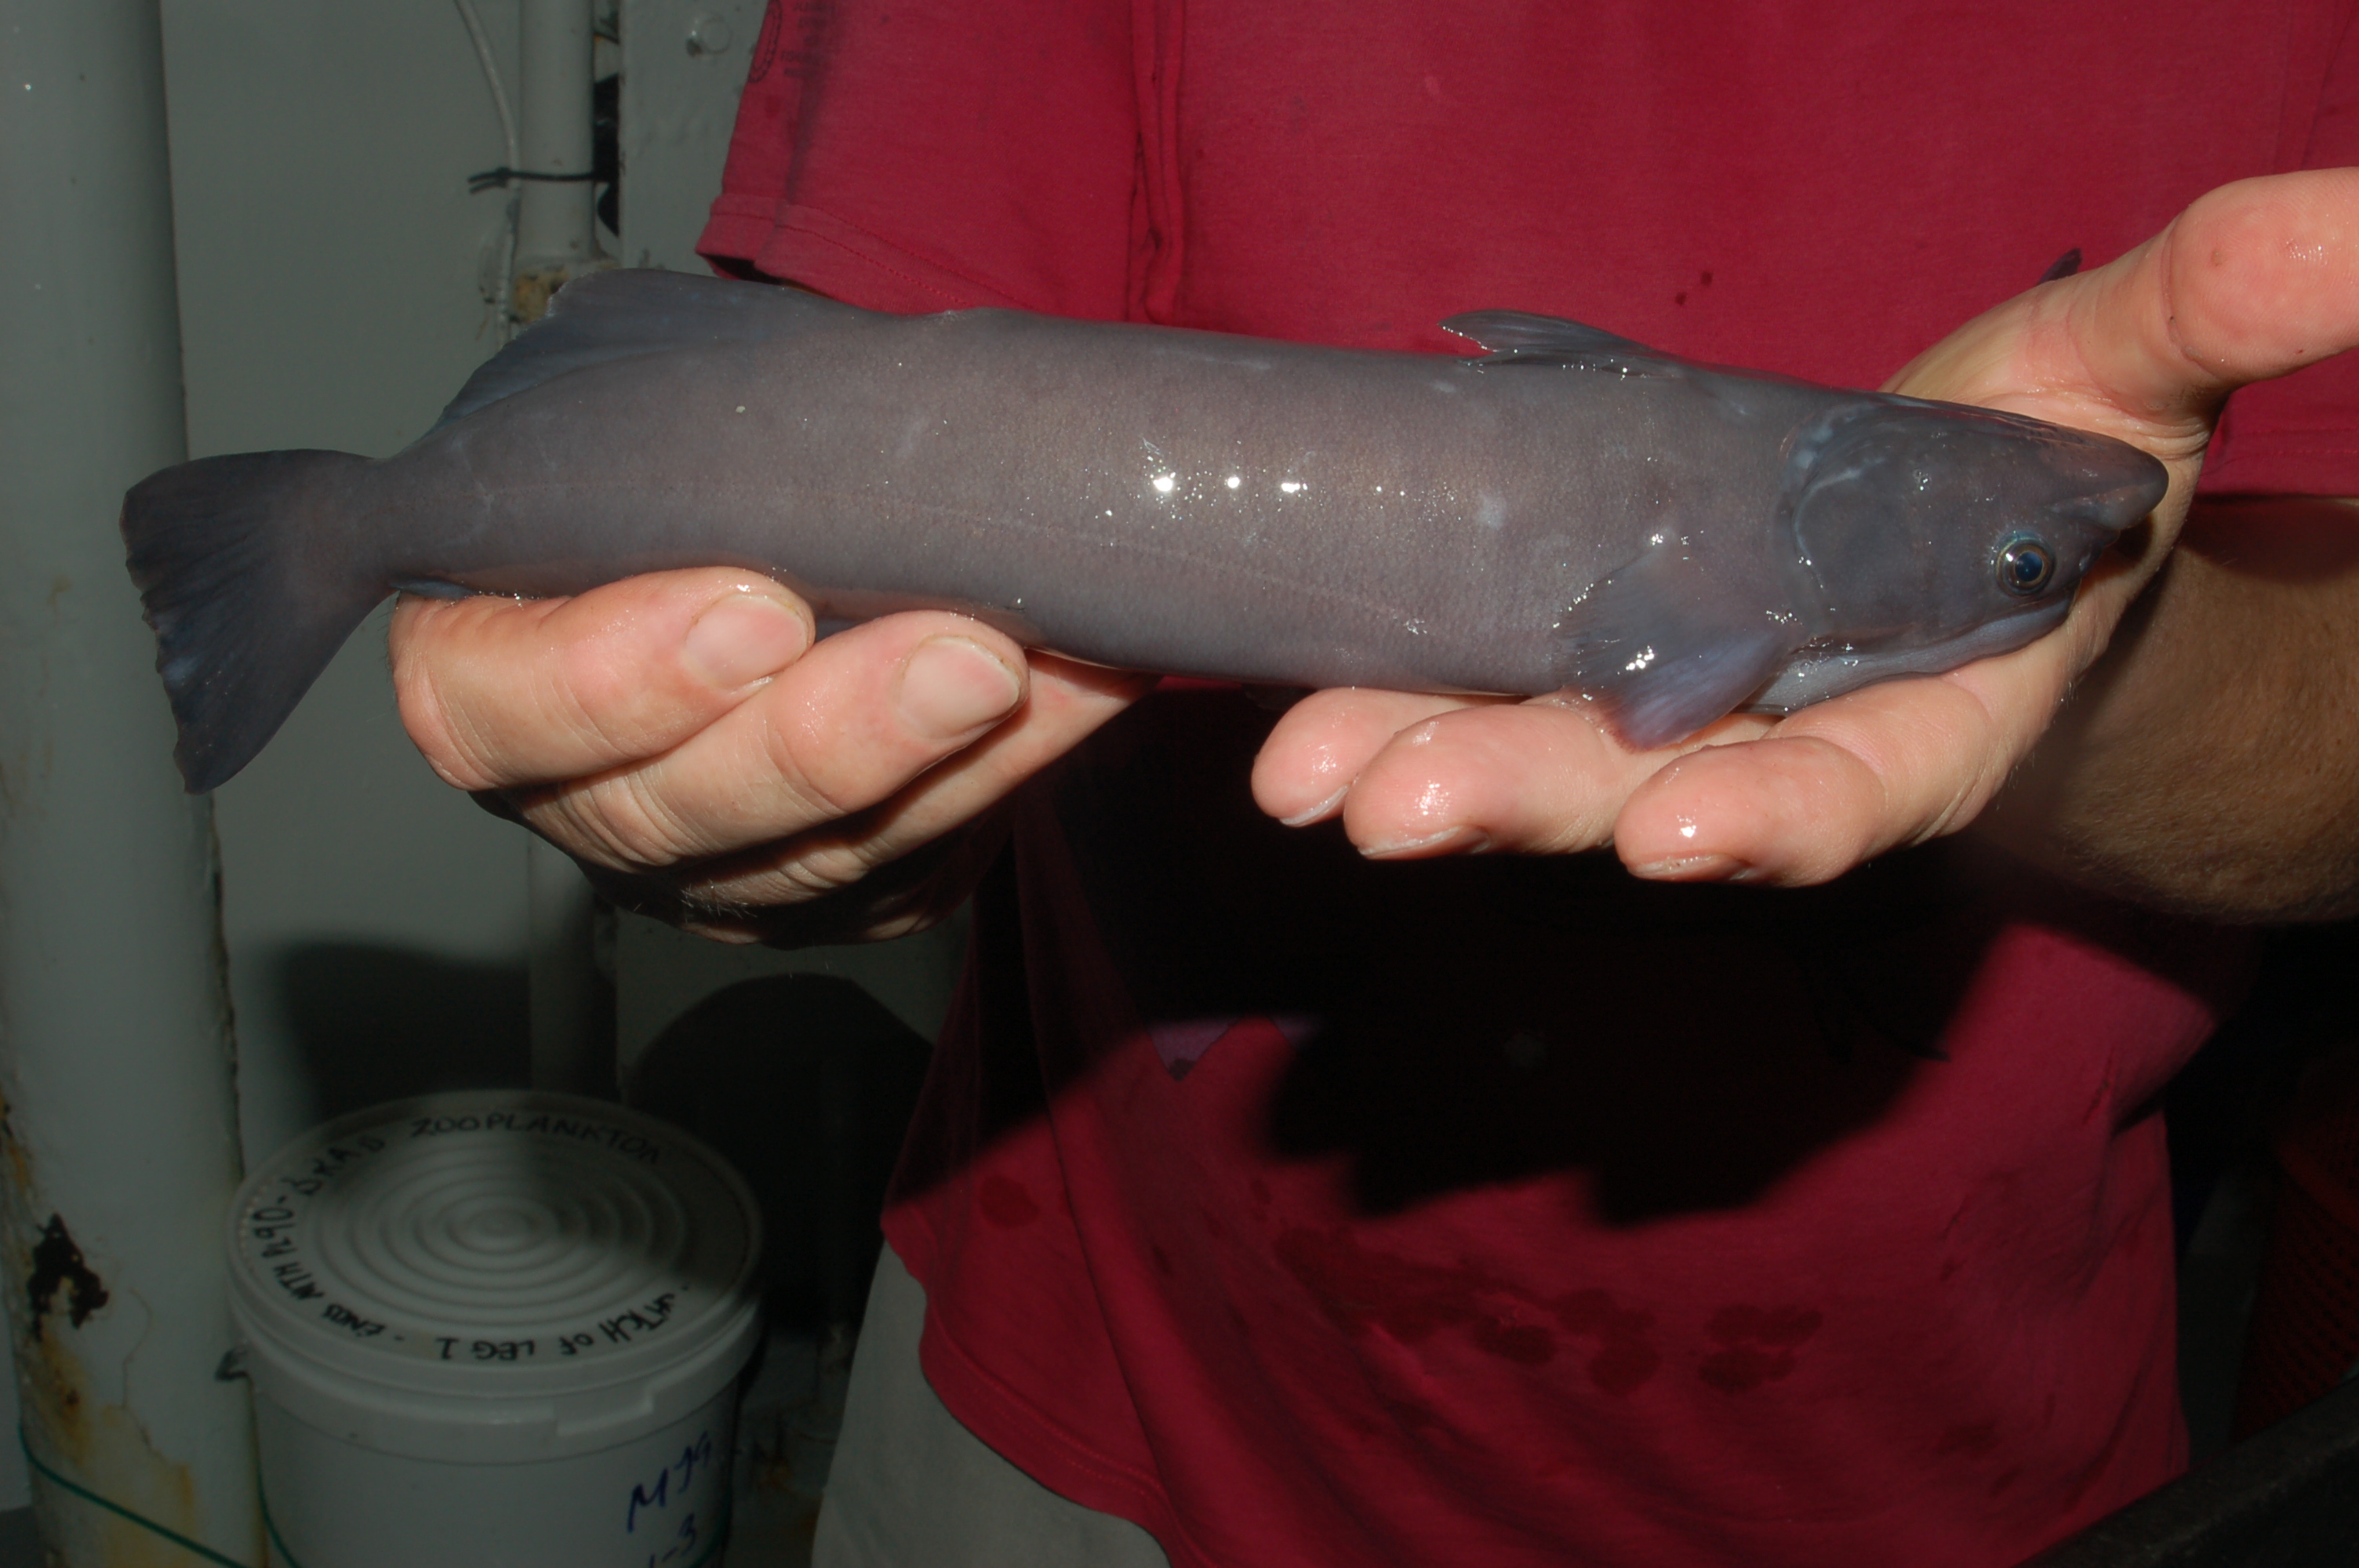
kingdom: Animalia
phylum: Chordata
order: Perciformes
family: Echeneidae
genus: Remora
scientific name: Remora remora
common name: Remora
